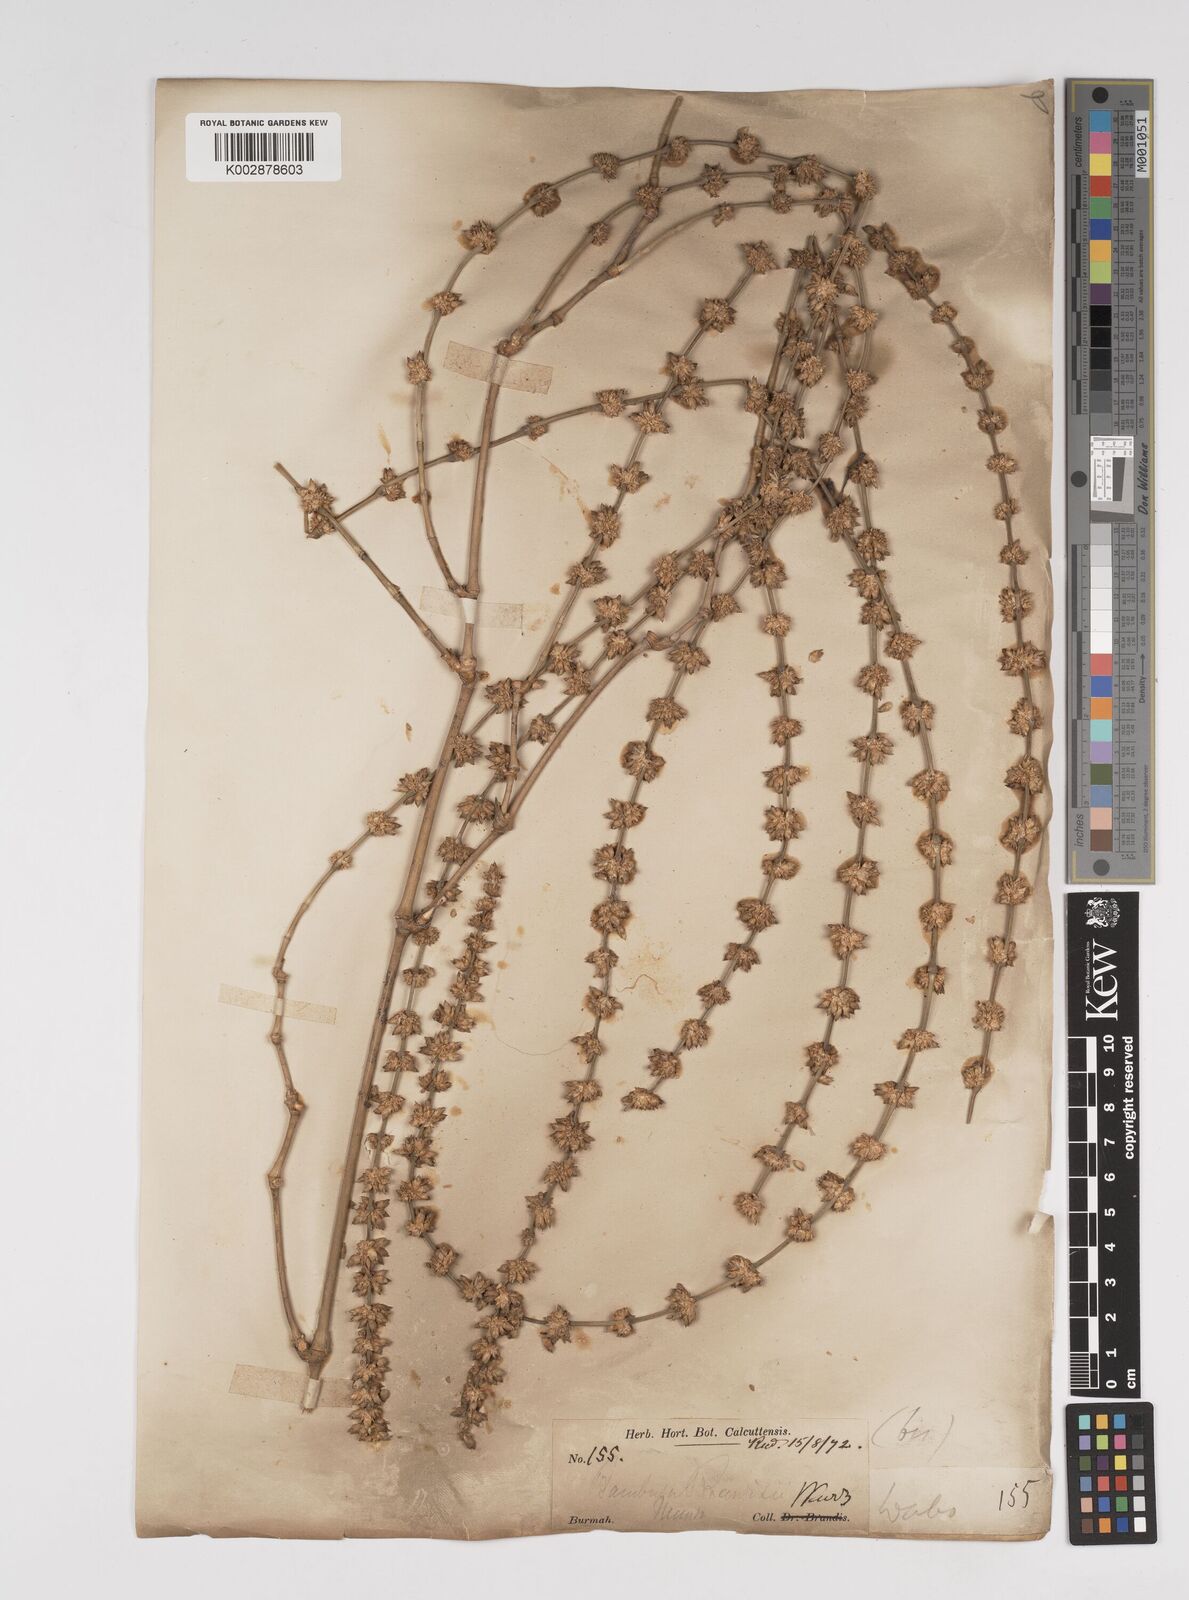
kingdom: Plantae
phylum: Tracheophyta
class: Liliopsida
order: Poales
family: Poaceae
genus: Dendrocalamus
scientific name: Dendrocalamus brandisii
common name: Velvetleaf bamboo
